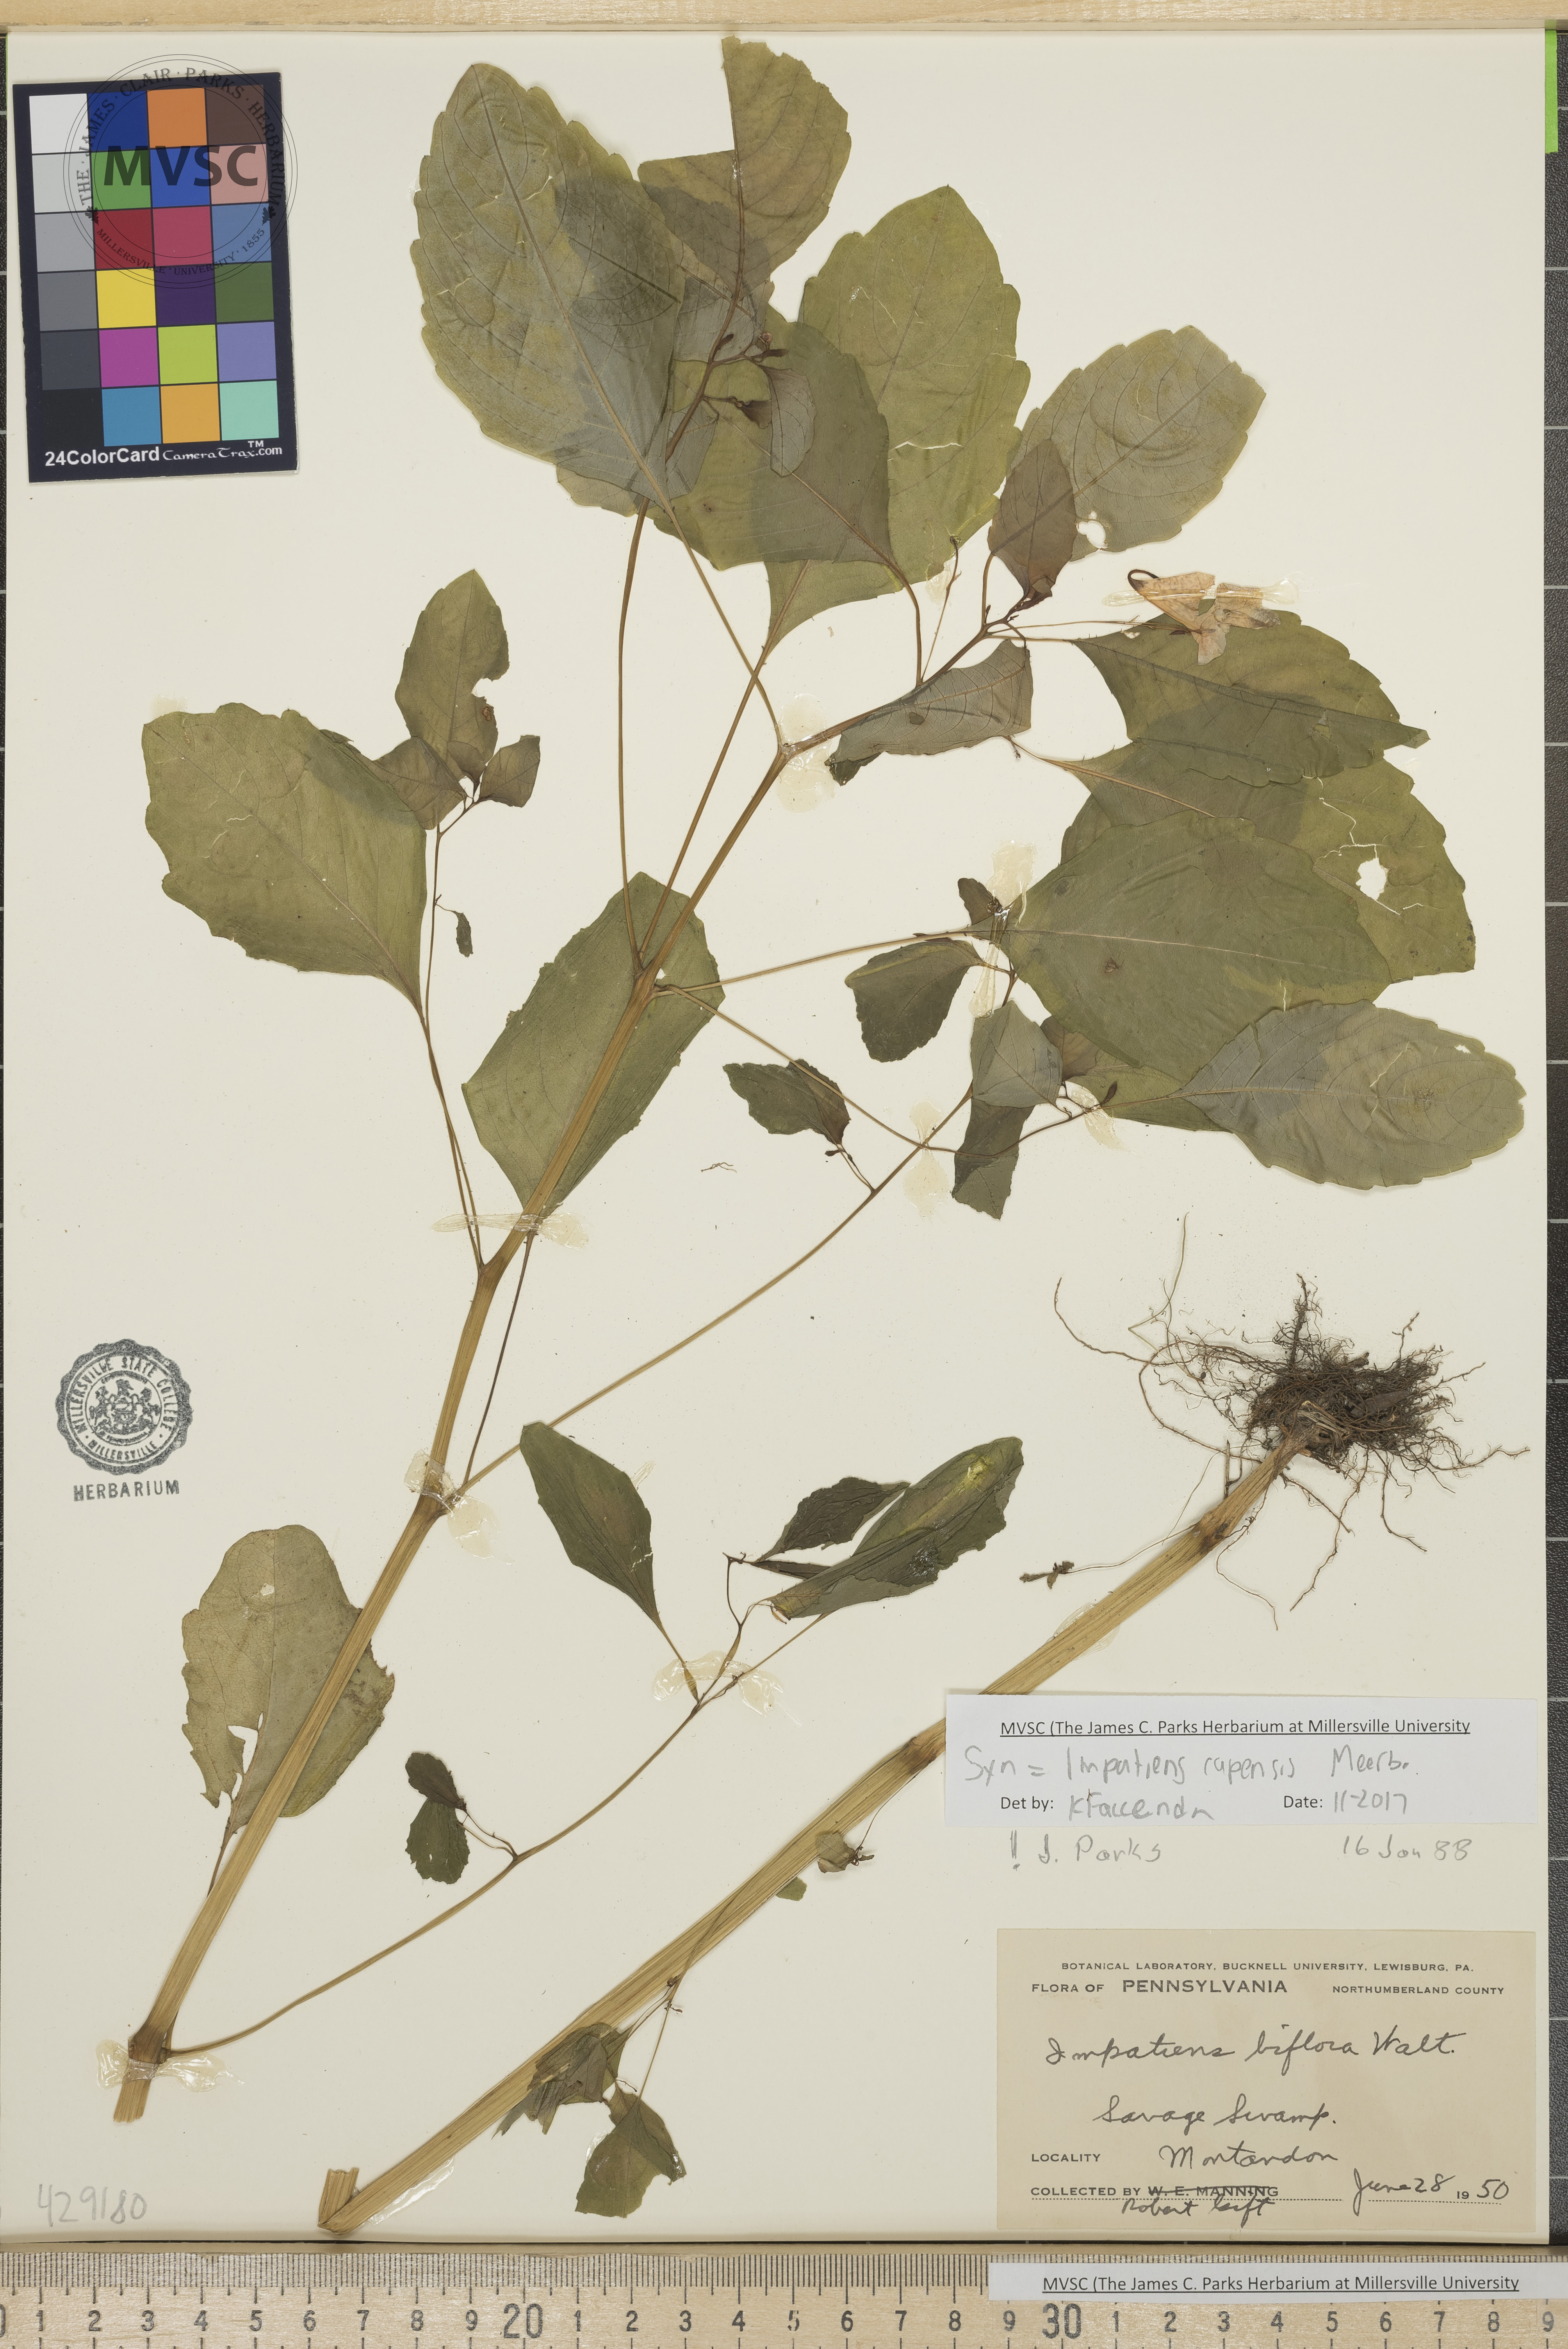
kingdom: Plantae
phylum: Tracheophyta
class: Magnoliopsida
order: Ericales
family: Balsaminaceae
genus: Impatiens
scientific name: Impatiens capensis
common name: Jewelweed
